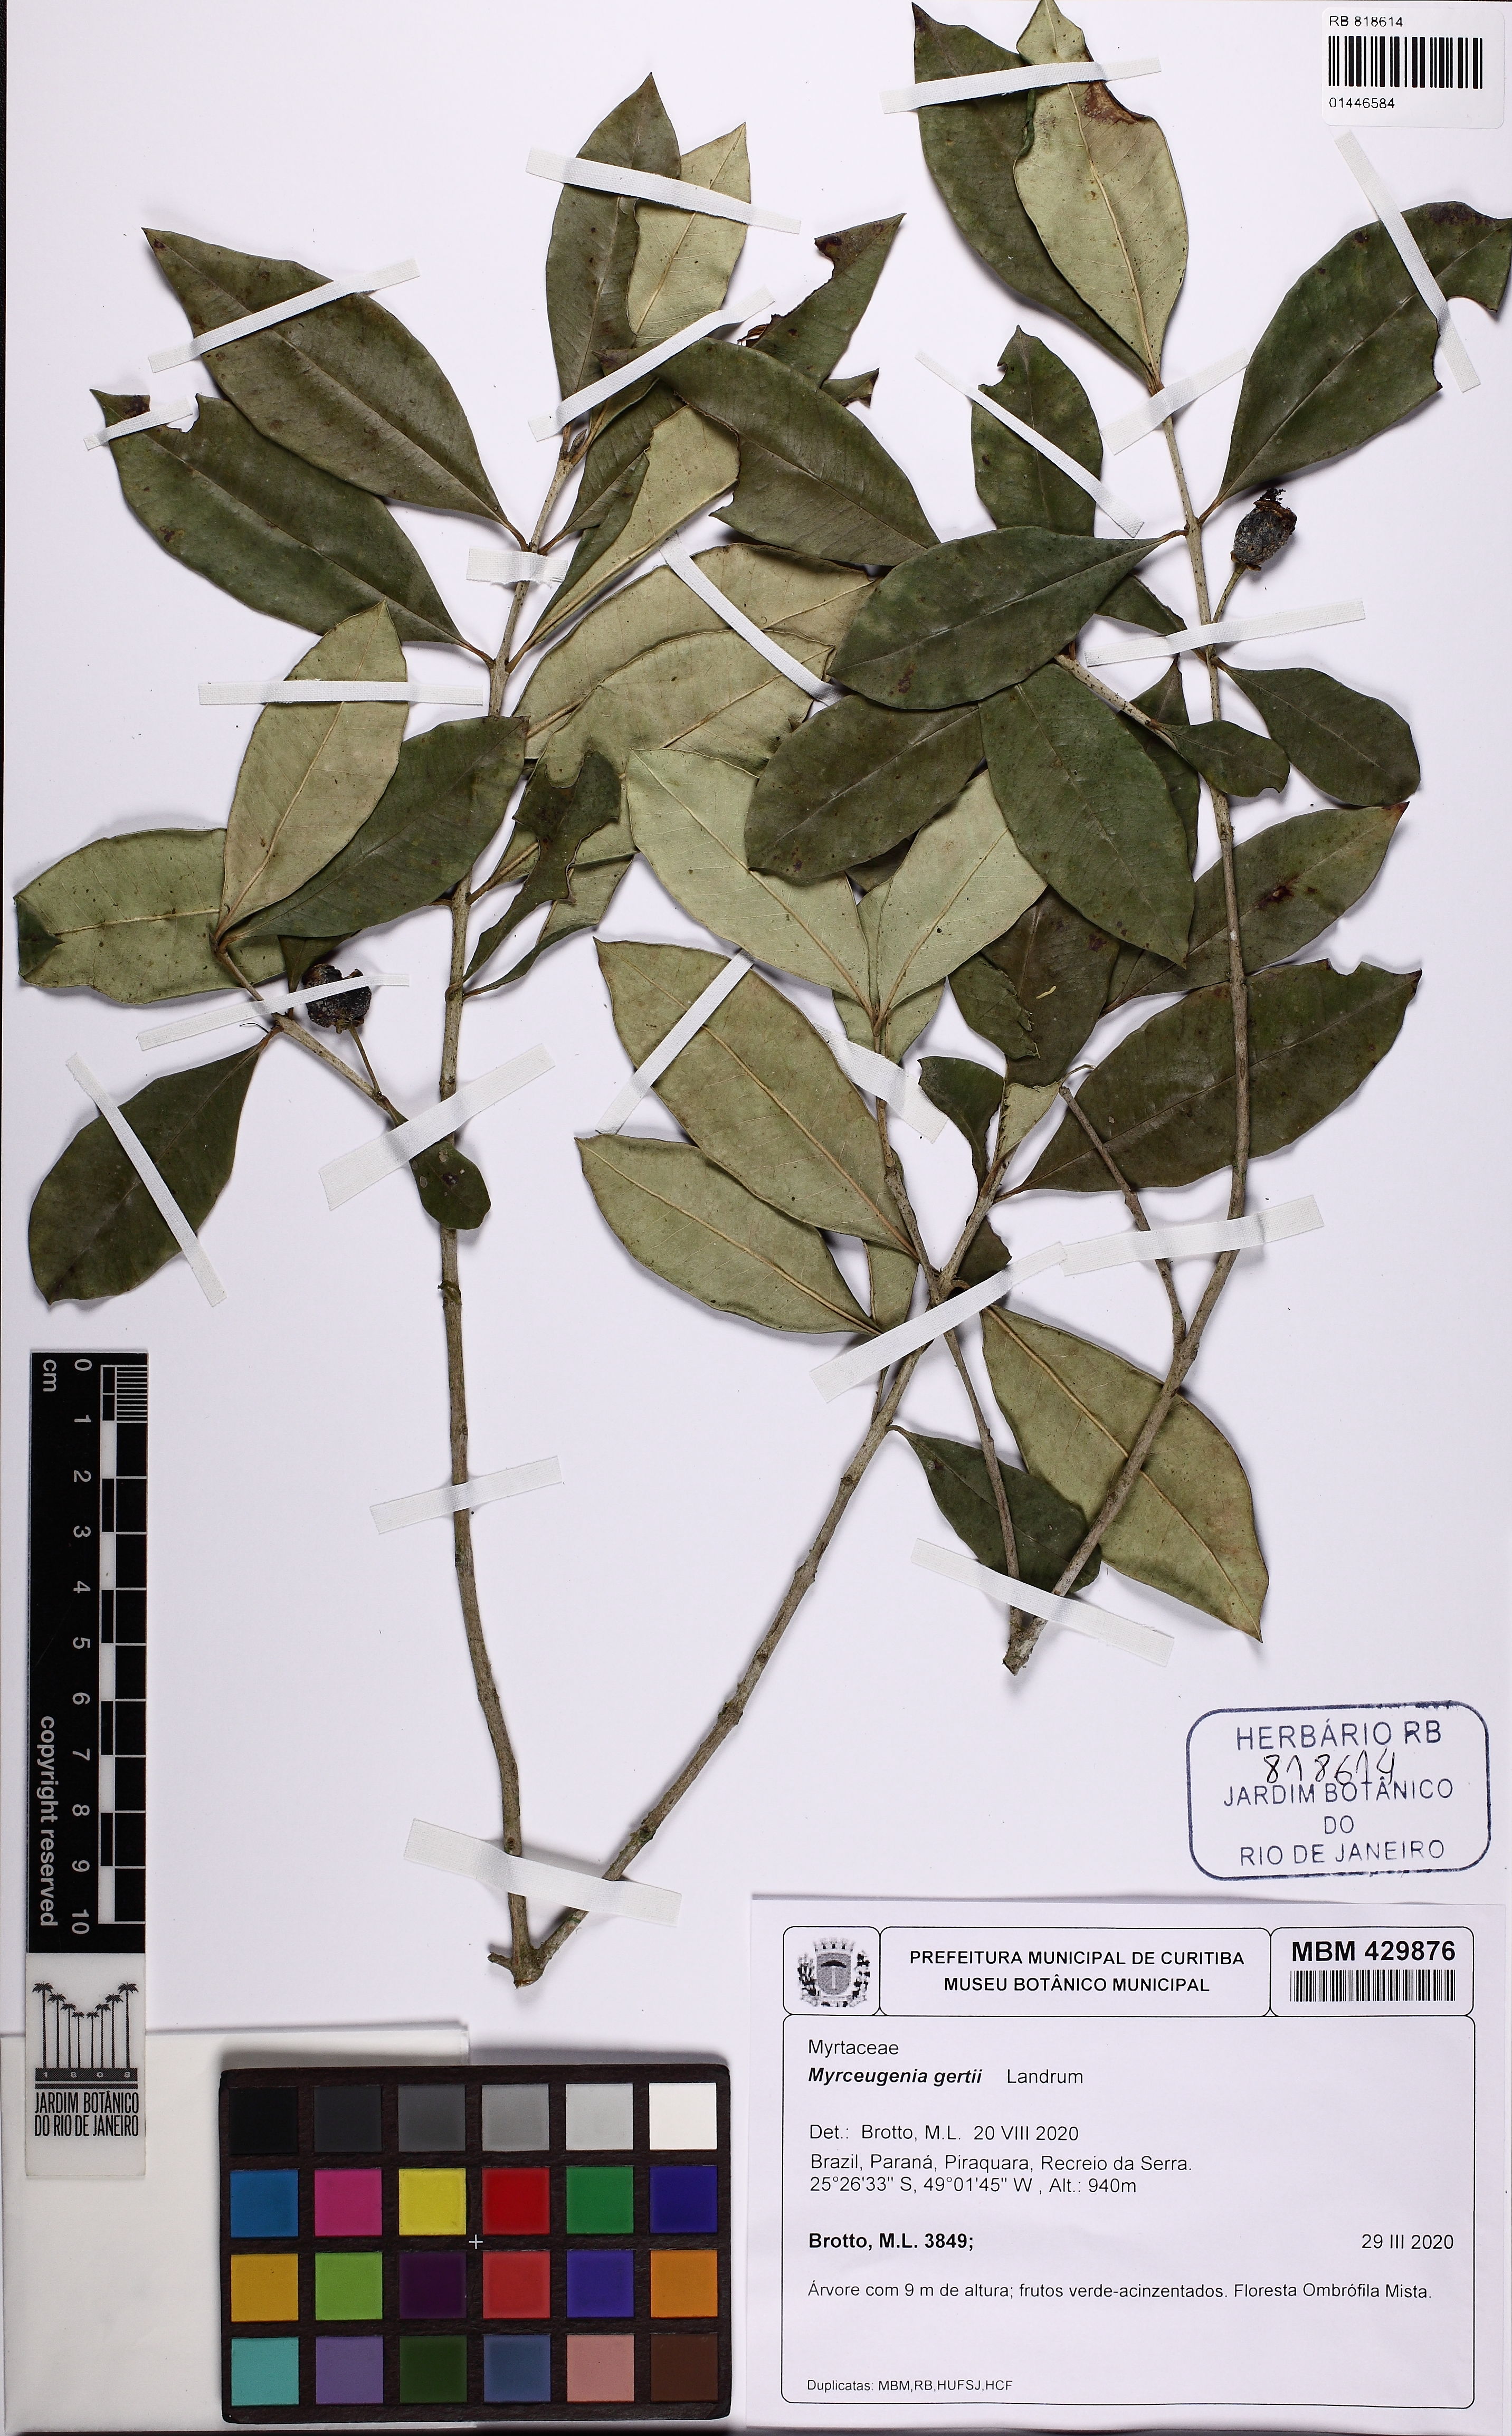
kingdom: Plantae
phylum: Tracheophyta
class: Magnoliopsida
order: Myrtales
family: Myrtaceae
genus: Myrceugenia
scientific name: Myrceugenia gertii
